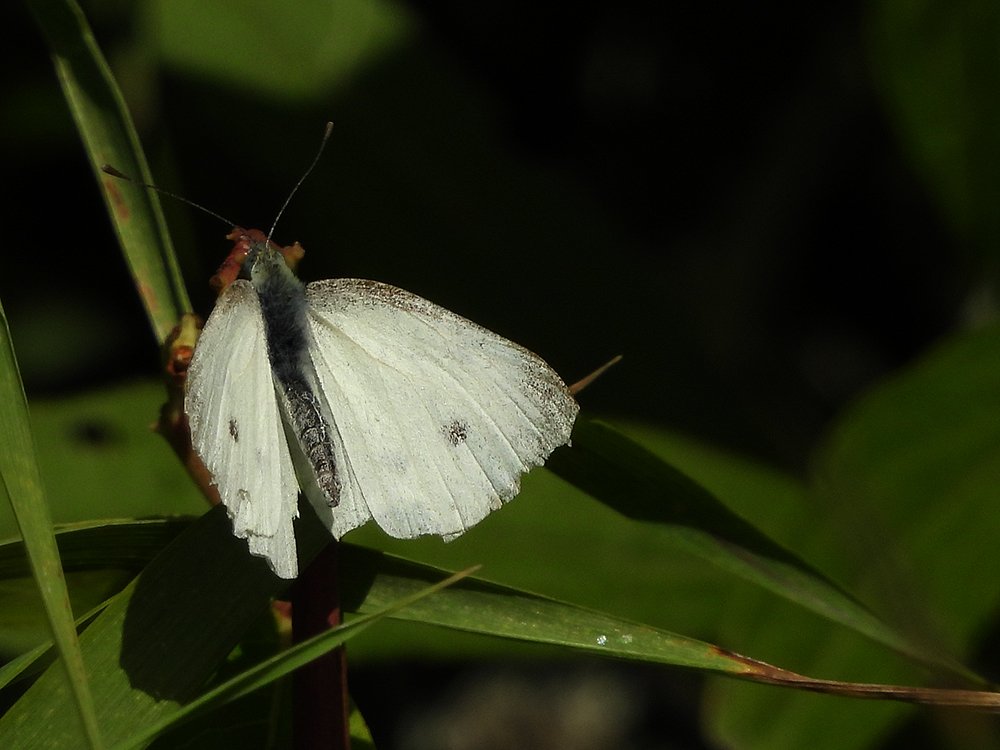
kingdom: Animalia
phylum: Arthropoda
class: Insecta
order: Lepidoptera
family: Pieridae
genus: Pieris
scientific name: Pieris rapae
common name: Cabbage White
